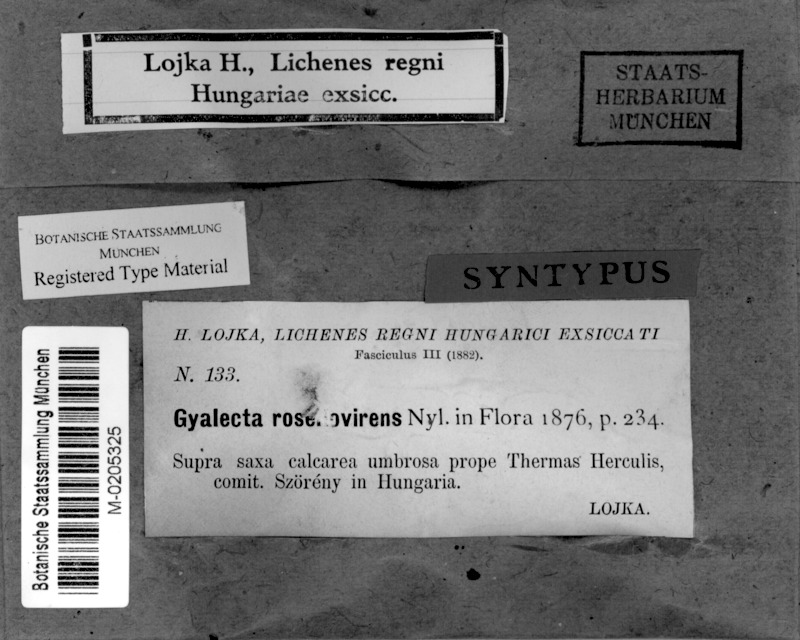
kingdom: Fungi
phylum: Ascomycota
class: Lecanoromycetes
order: Gyalectales
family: Gyalectaceae
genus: Gyalecta
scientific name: Gyalecta subclausa
